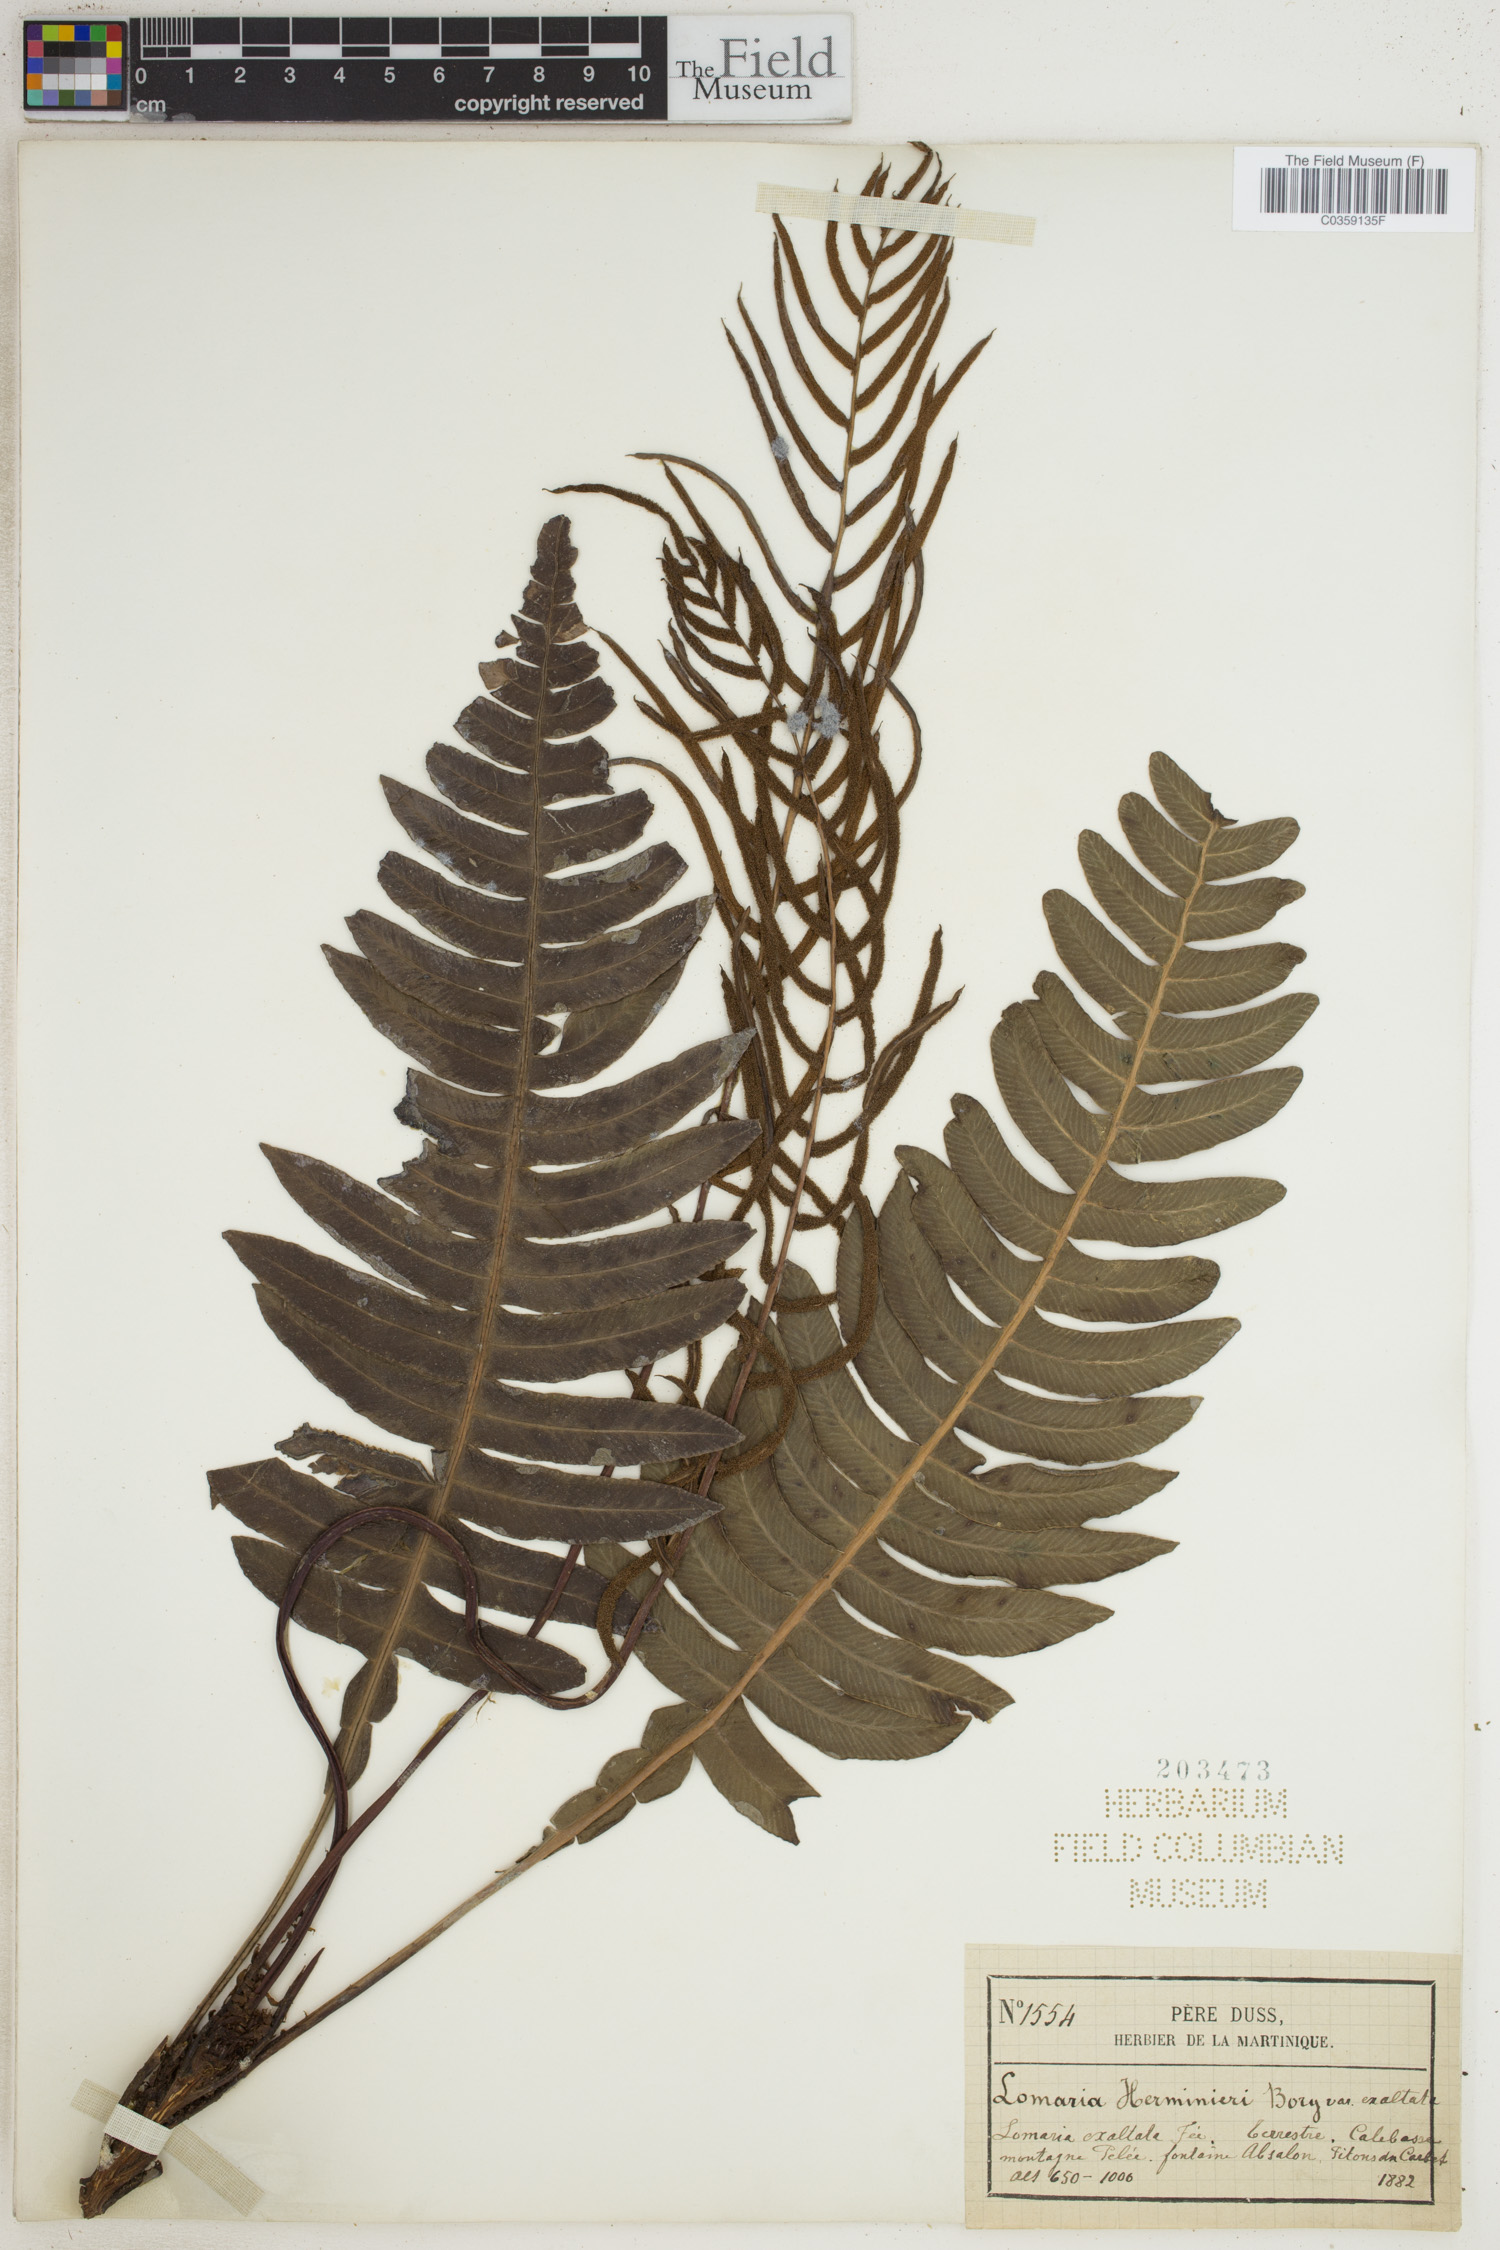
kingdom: Plantae
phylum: Tracheophyta
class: Polypodiopsida
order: Polypodiales
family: Blechnaceae
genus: Austroblechnum
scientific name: Austroblechnum lherminieri
